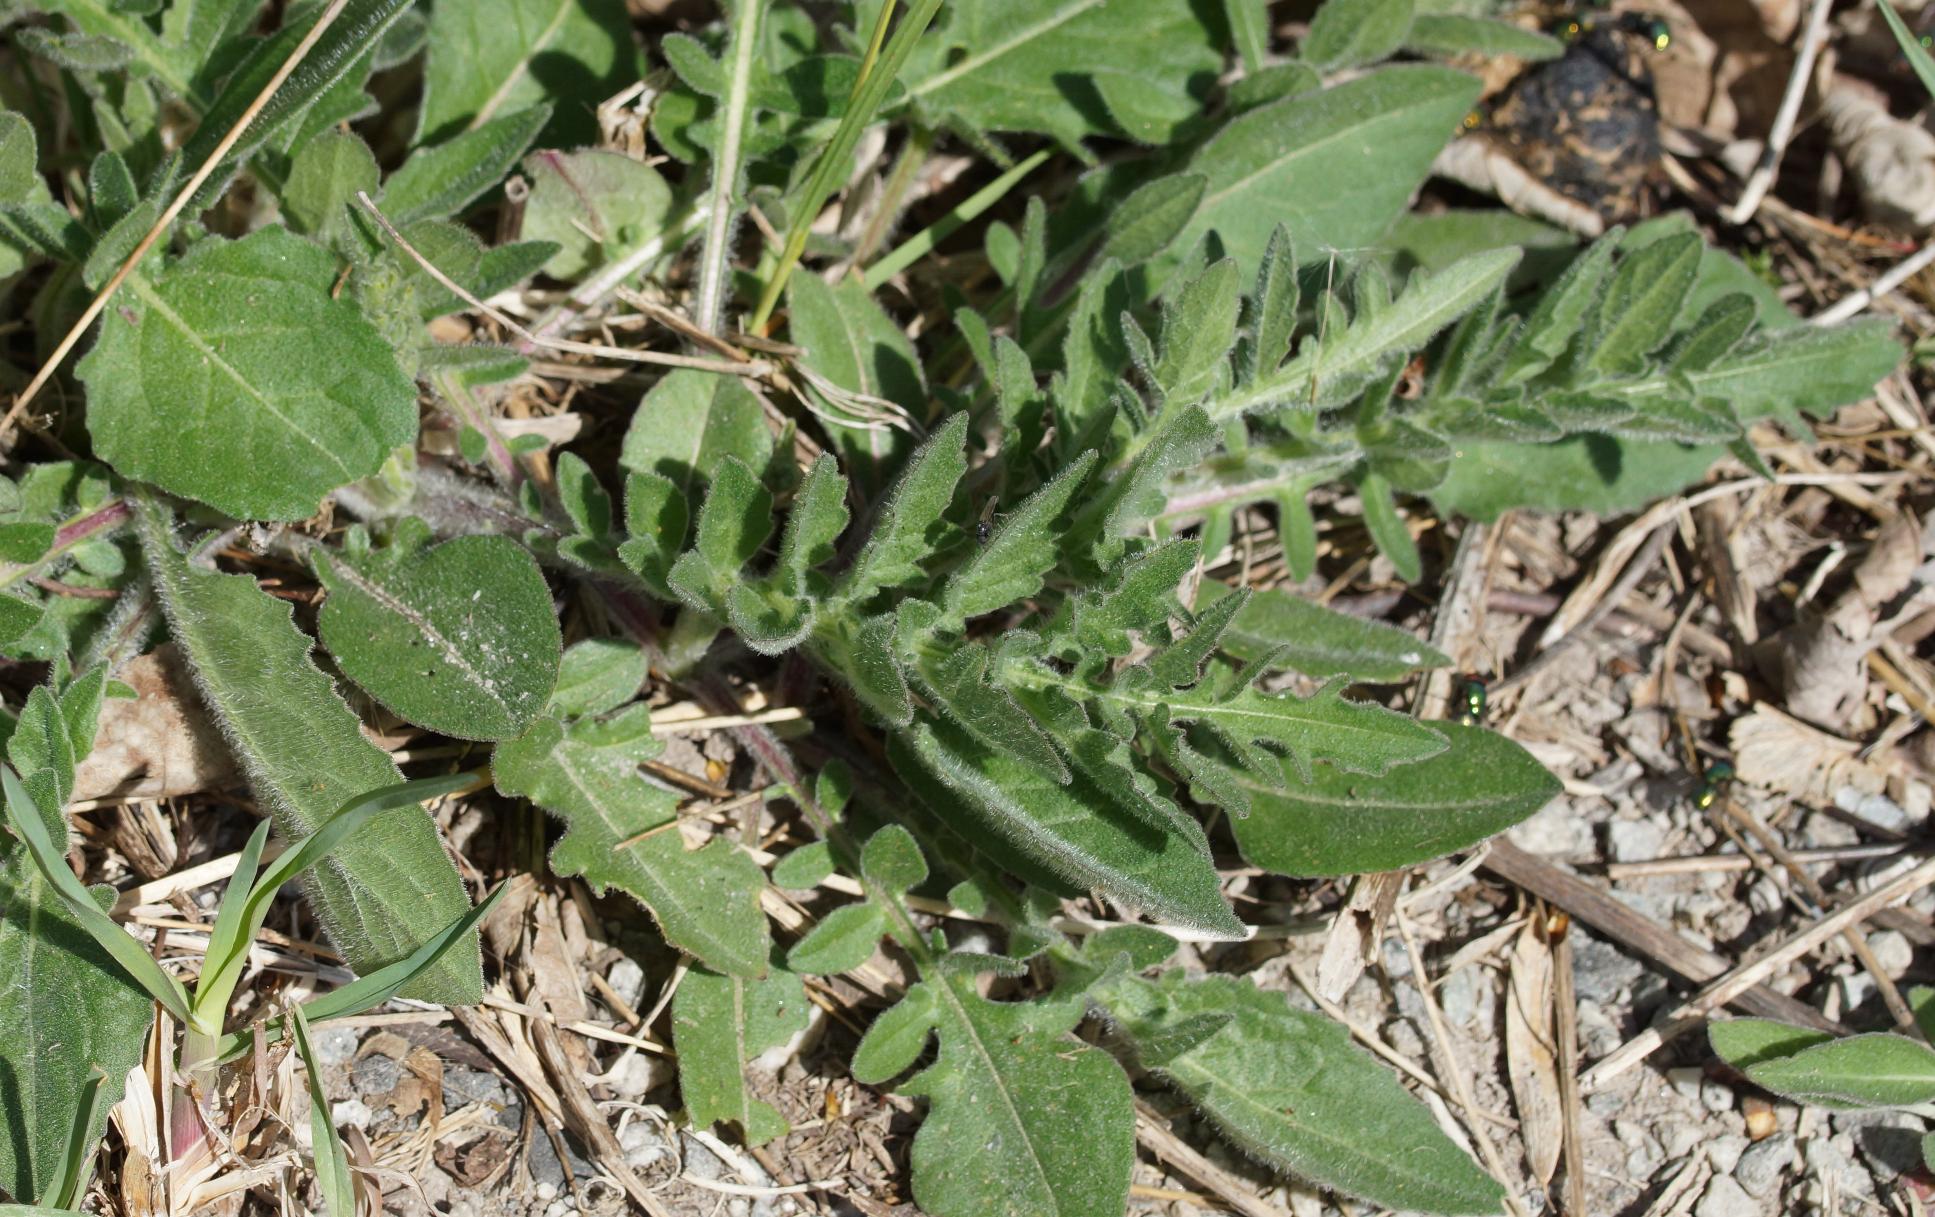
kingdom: Plantae
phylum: Tracheophyta
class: Magnoliopsida
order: Asterales
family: Asteraceae
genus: Centaurea
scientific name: Centaurea scabiosa
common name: Stor knopurt
